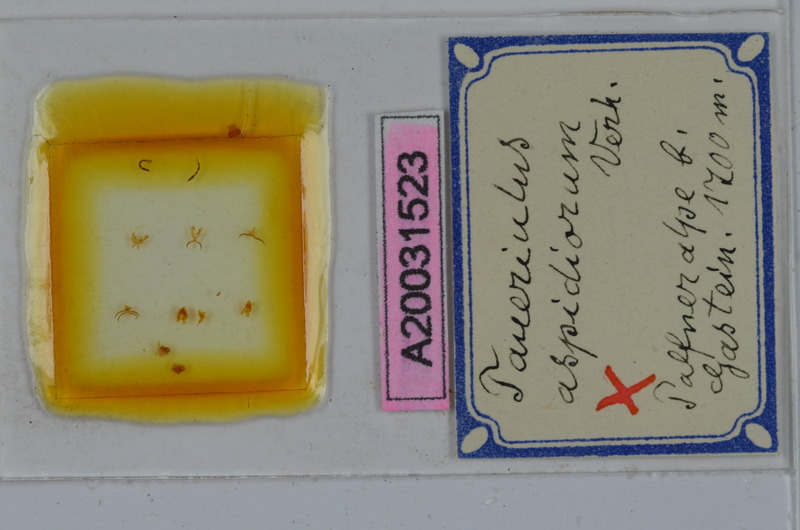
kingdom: Animalia
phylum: Arthropoda
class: Diplopoda
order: Julida
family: Julidae
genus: Ophyiulus
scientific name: Ophyiulus aspidiorum
